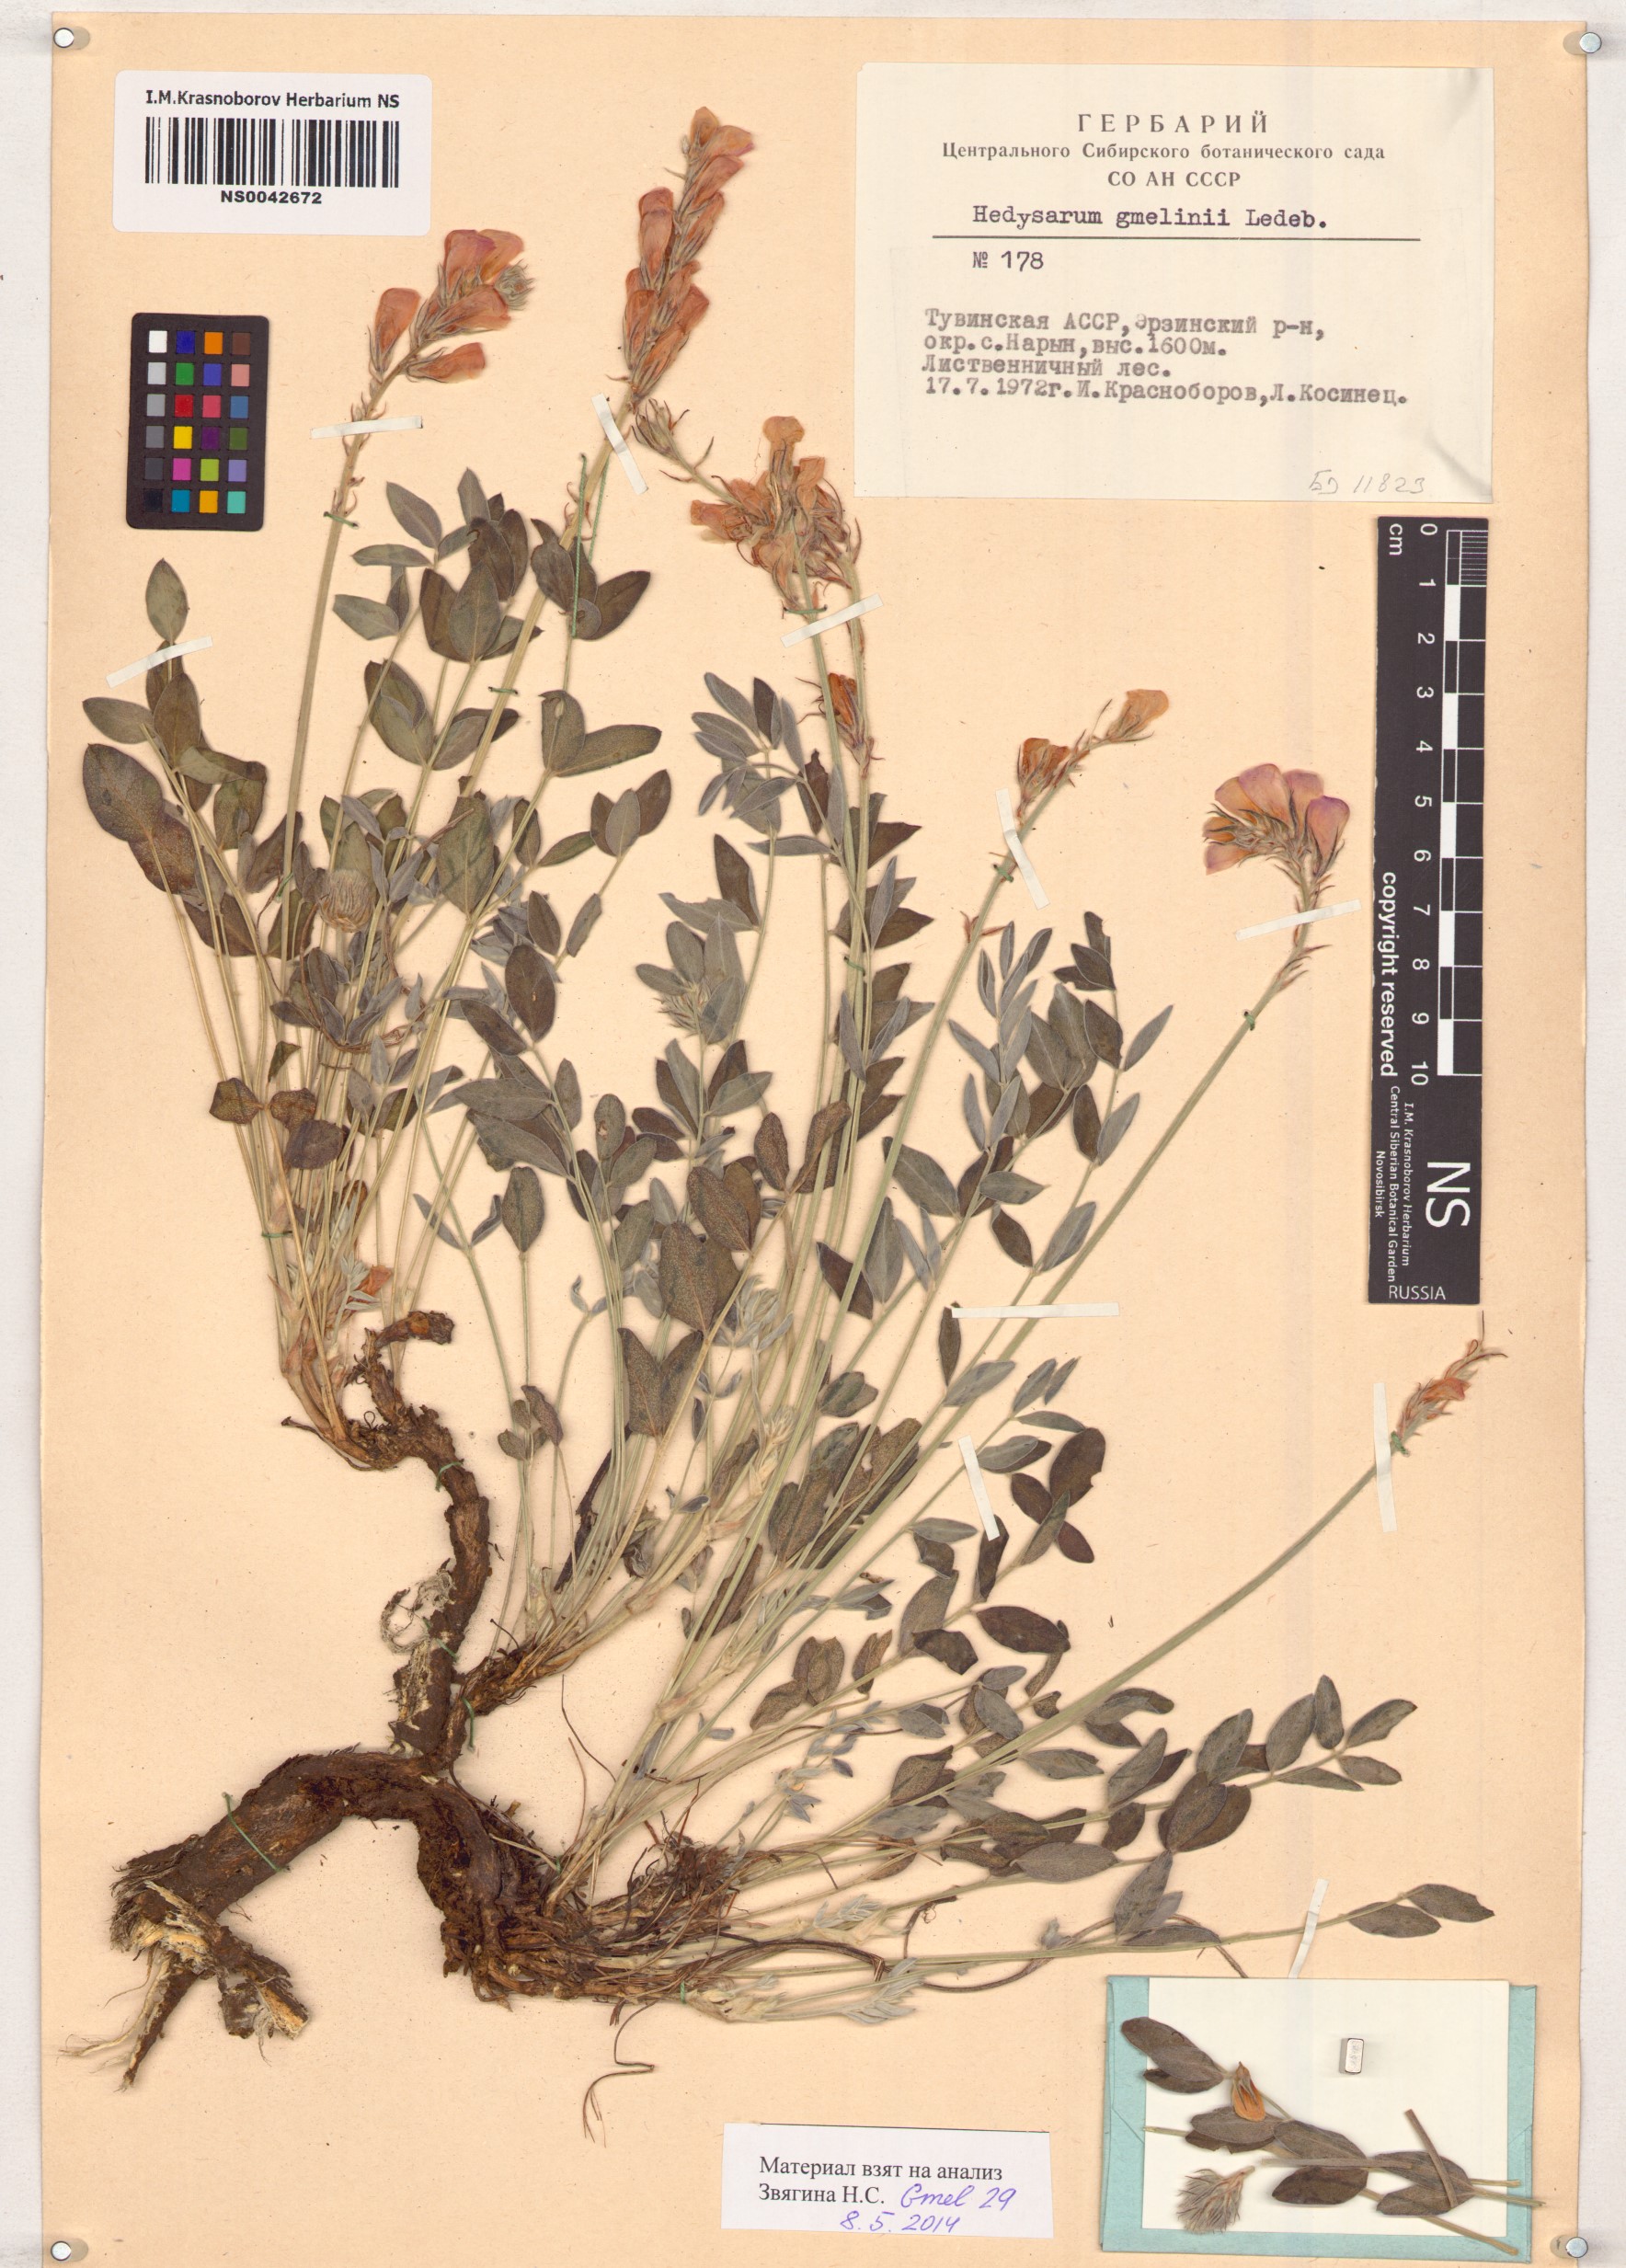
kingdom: Plantae
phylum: Tracheophyta
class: Magnoliopsida
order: Fabales
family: Fabaceae
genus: Hedysarum
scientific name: Hedysarum gmelinii
